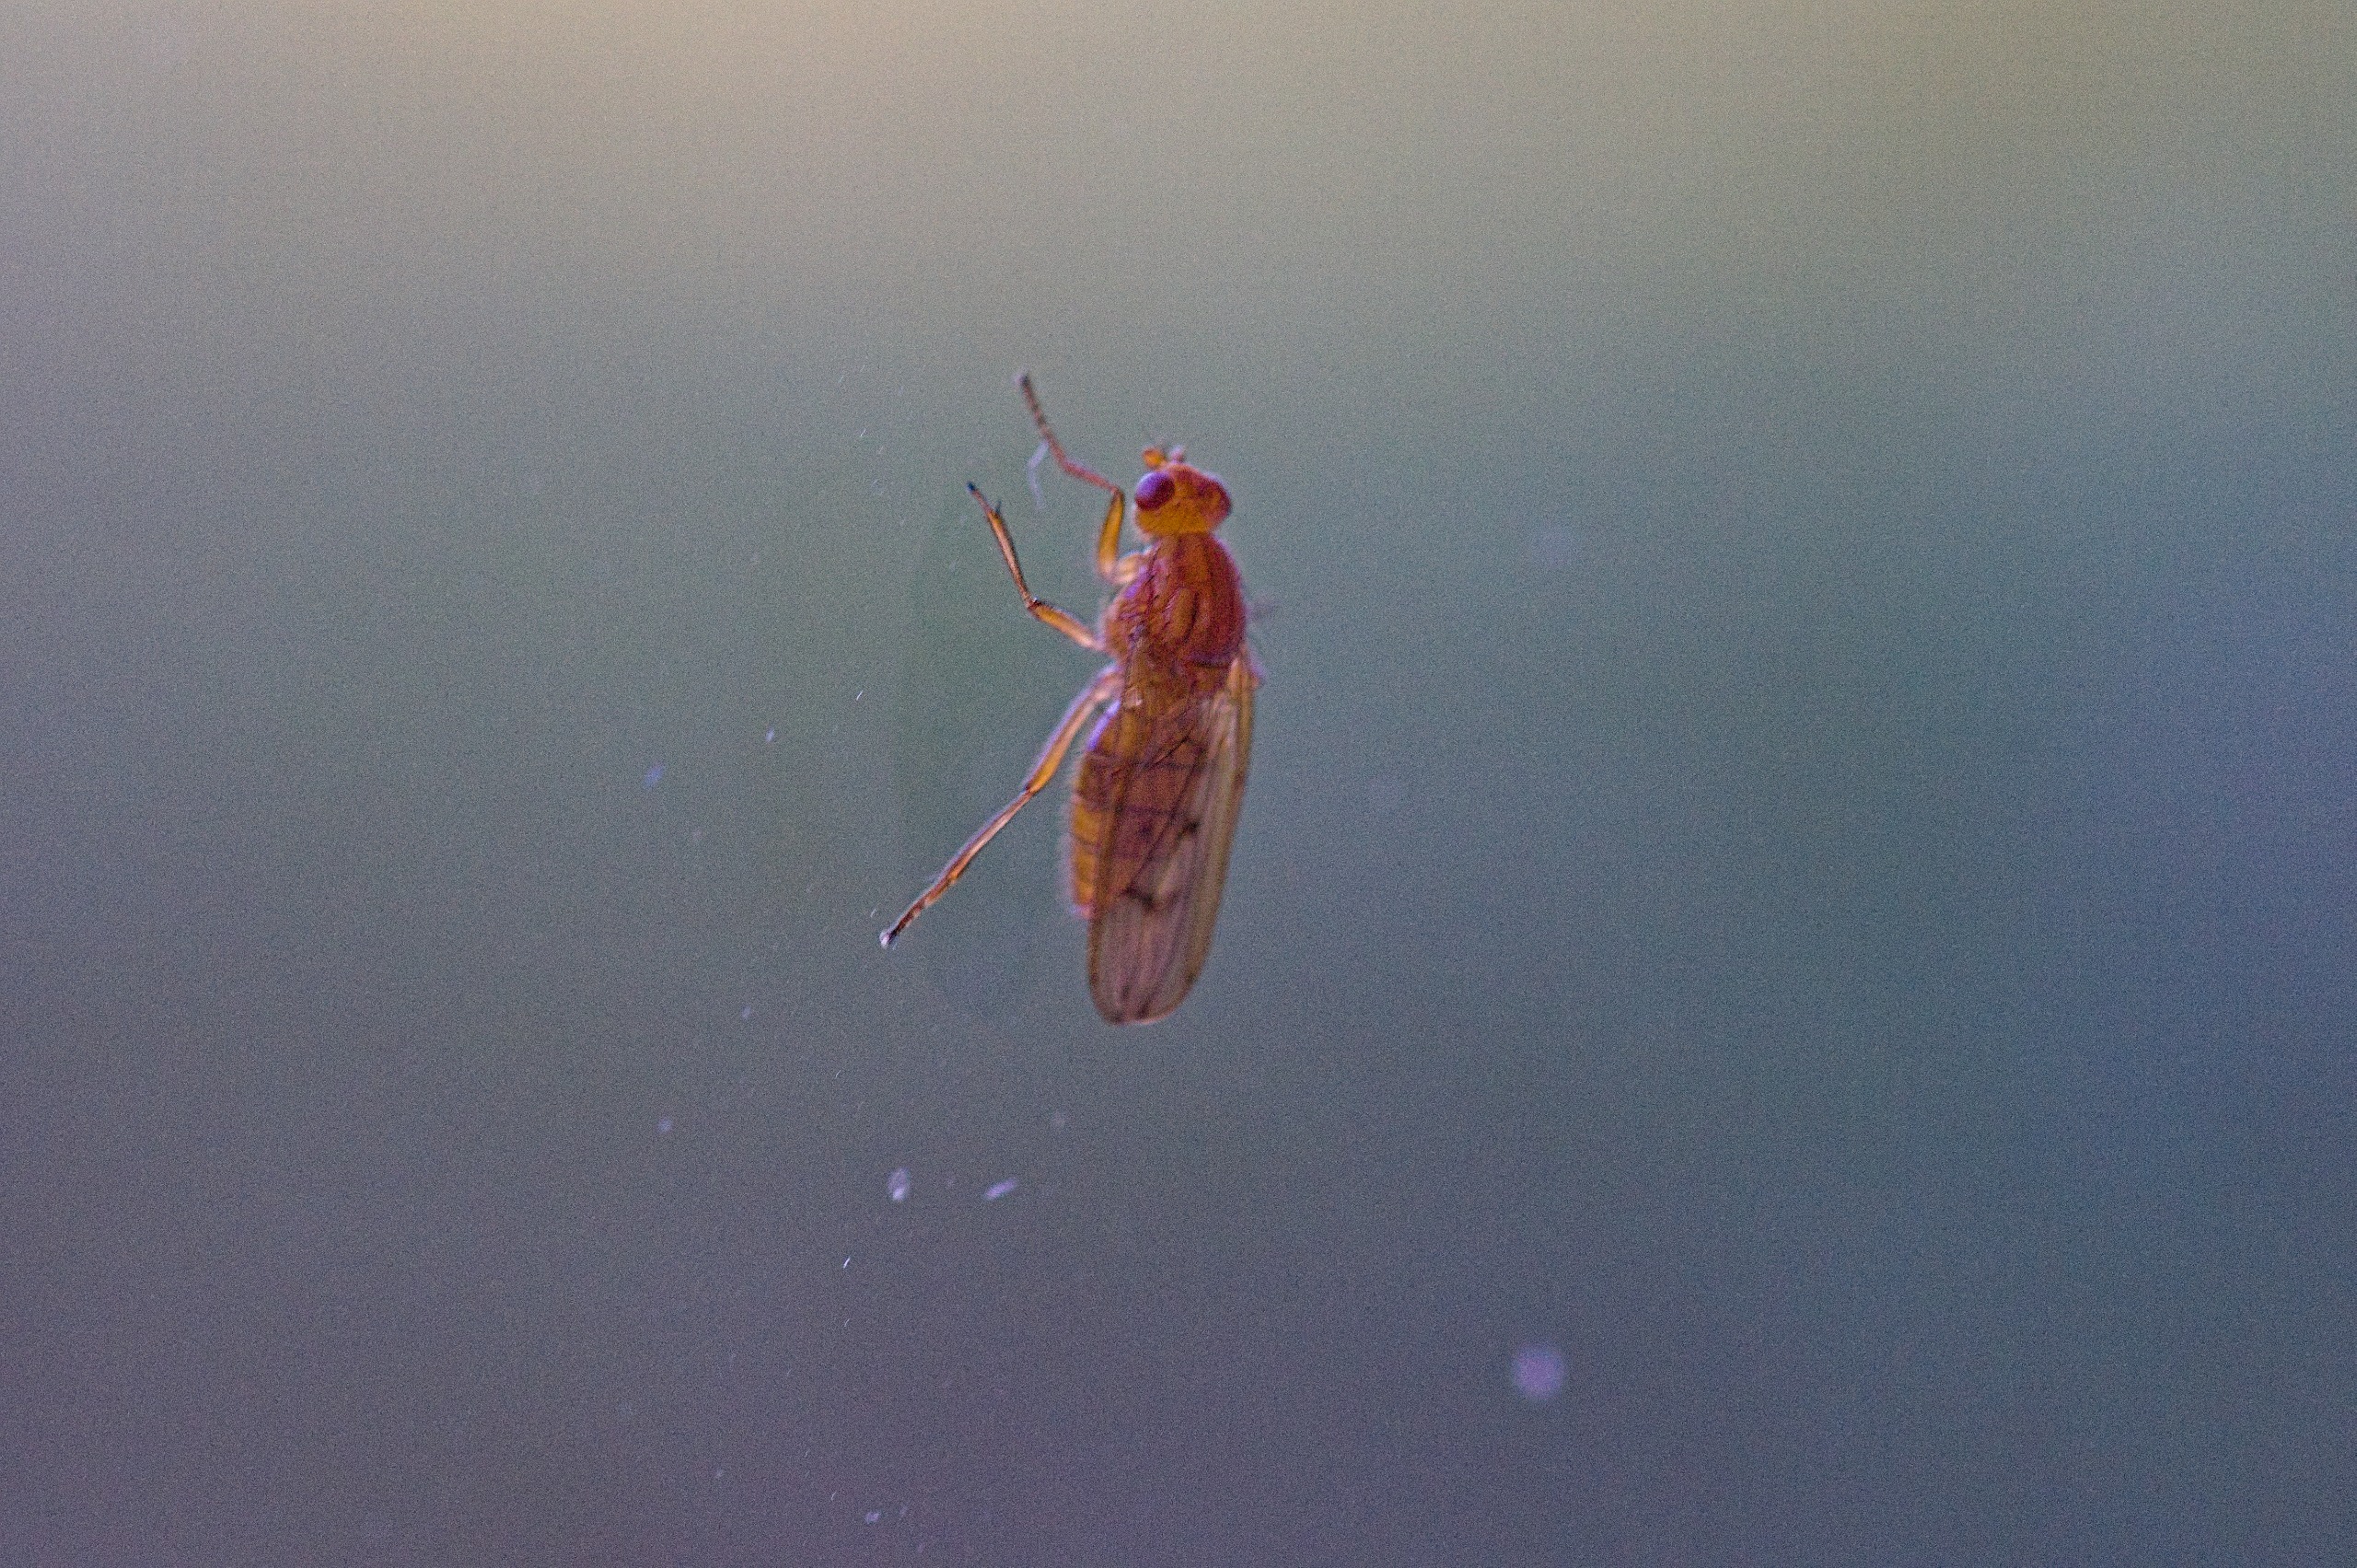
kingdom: Animalia
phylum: Arthropoda
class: Insecta
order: Diptera
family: Dryomyzidae
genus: Dryomyza
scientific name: Dryomyza anilis
